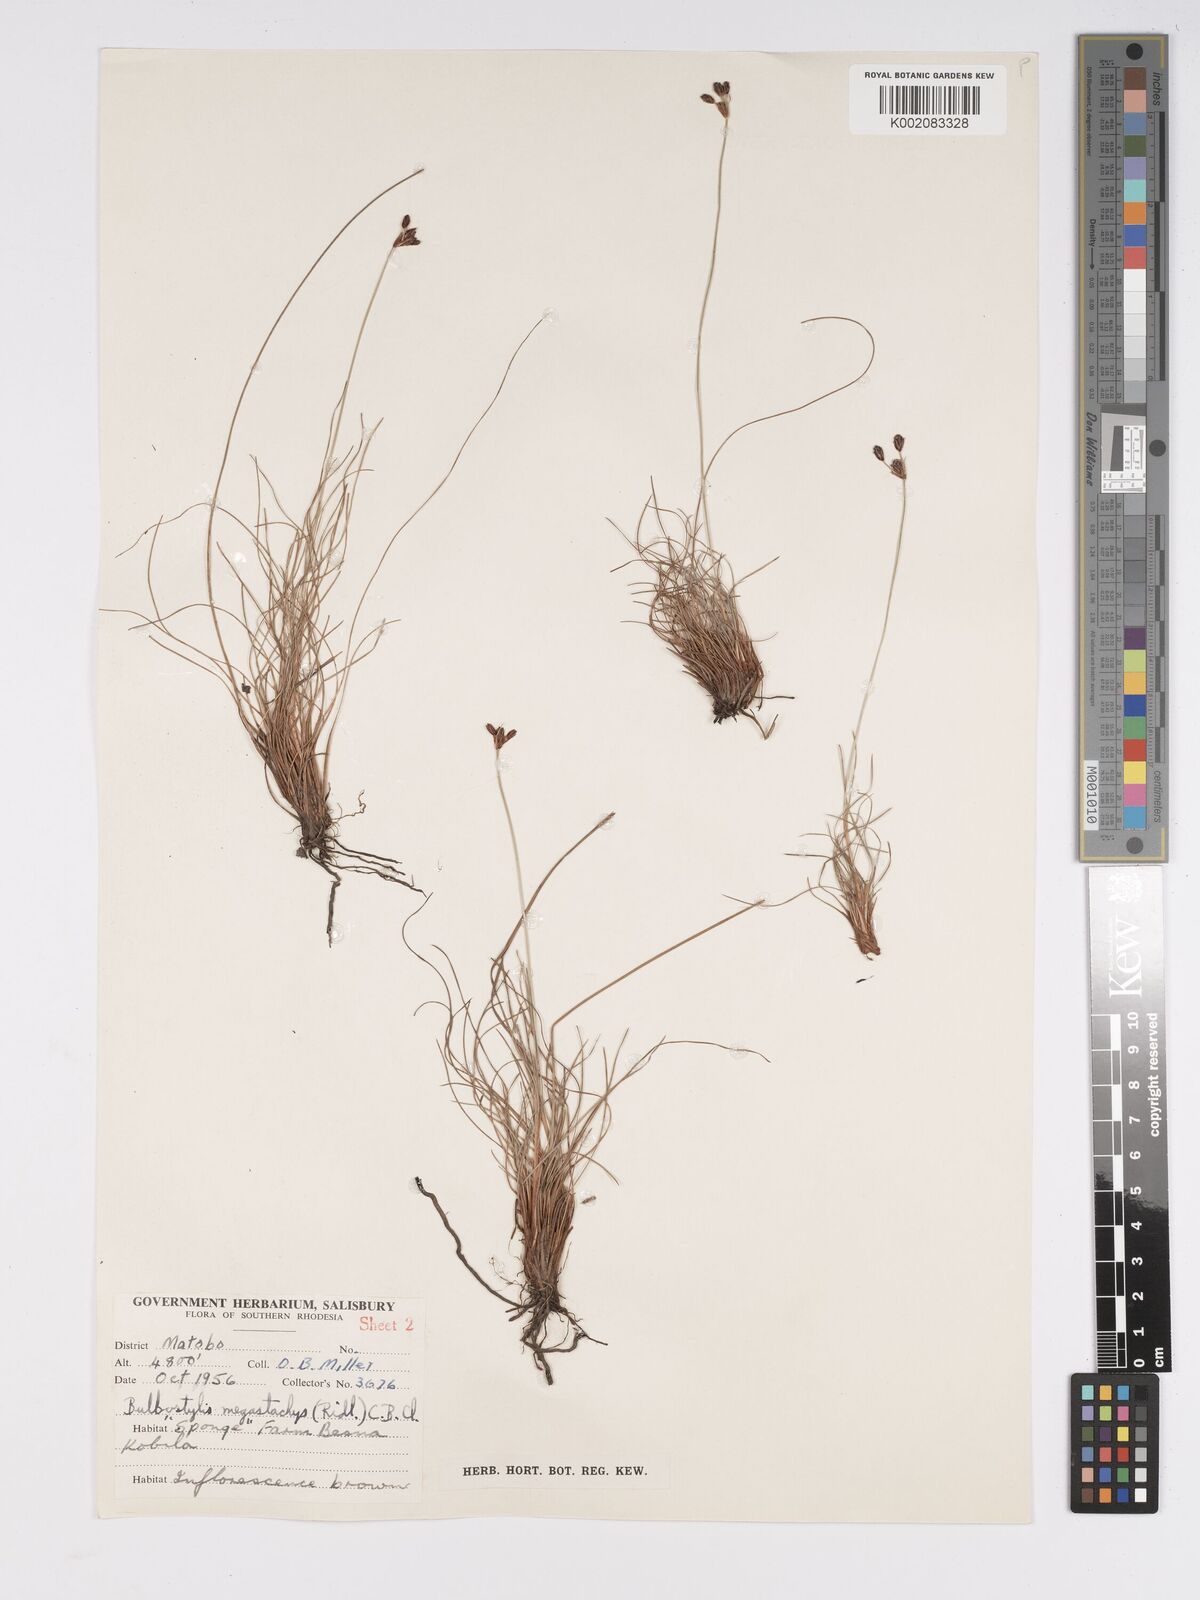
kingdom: Plantae
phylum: Tracheophyta
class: Liliopsida
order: Poales
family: Cyperaceae
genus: Bulbostylis
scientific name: Bulbostylis schoenoides
